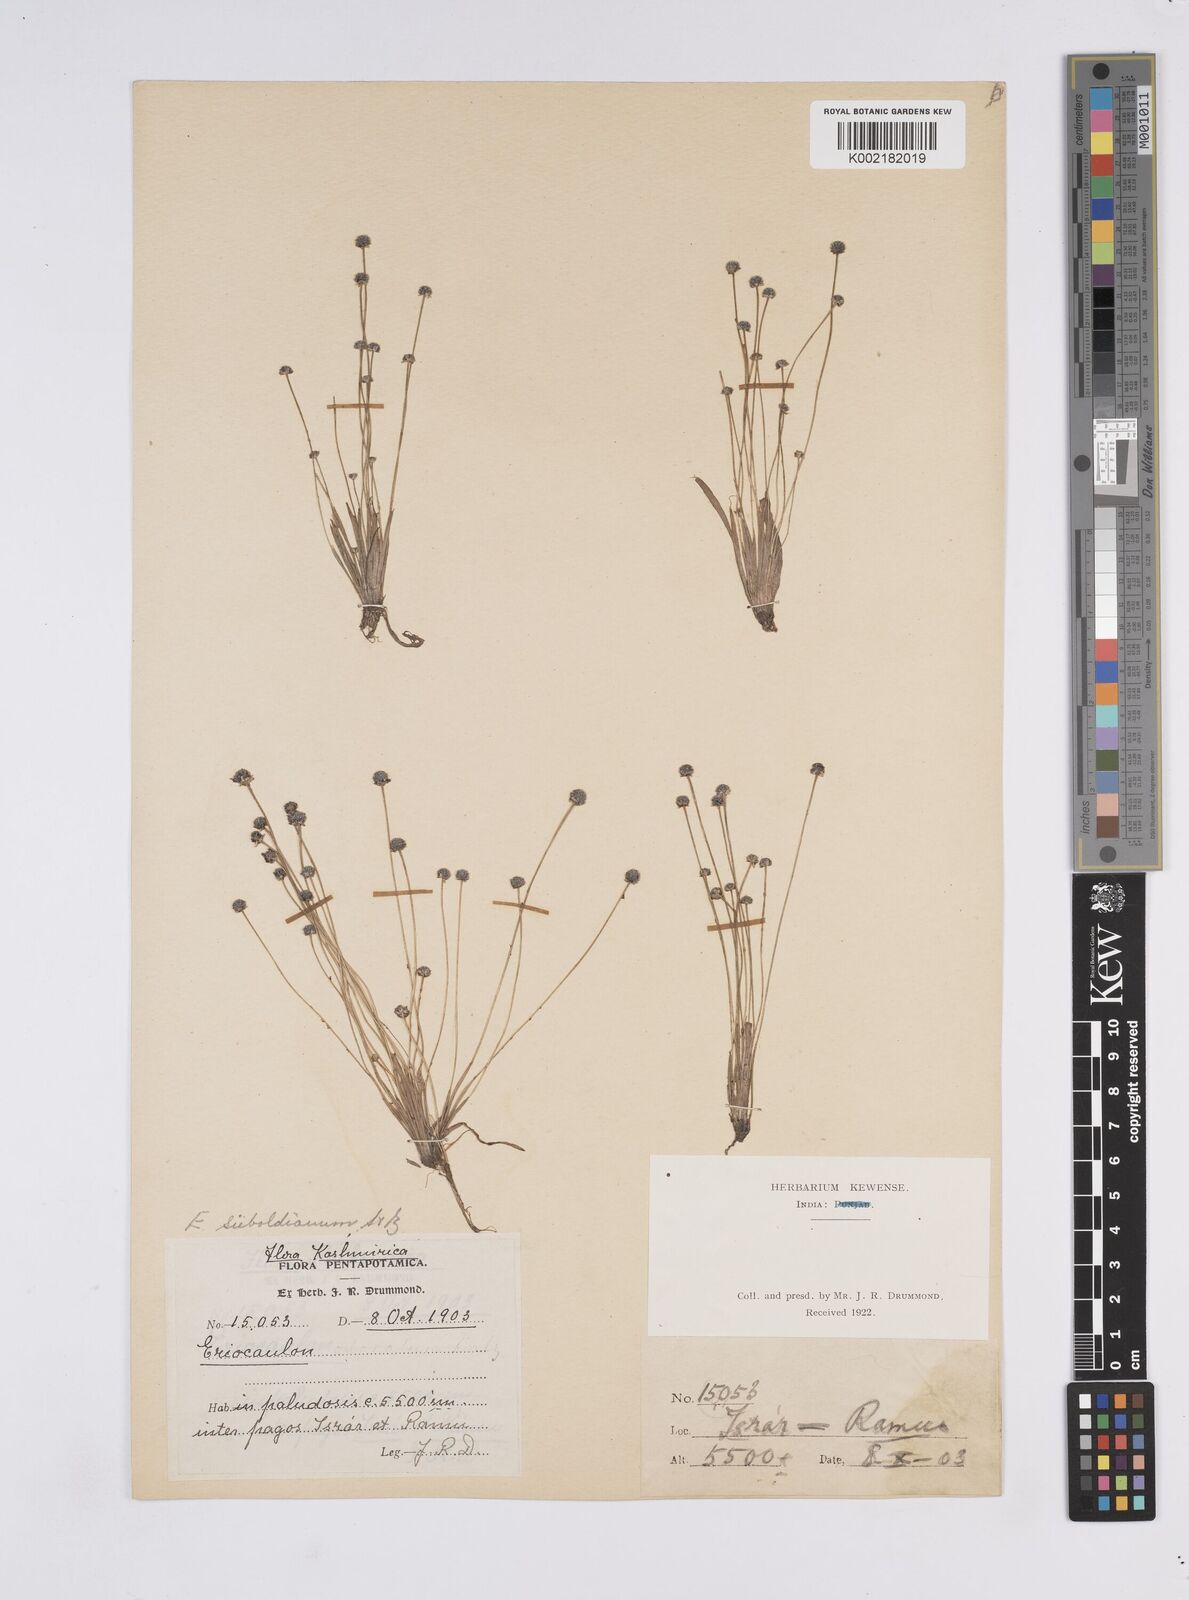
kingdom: Plantae
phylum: Tracheophyta
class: Liliopsida
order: Poales
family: Eriocaulaceae
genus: Eriocaulon
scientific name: Eriocaulon cinereum
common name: Ashy pipewort
